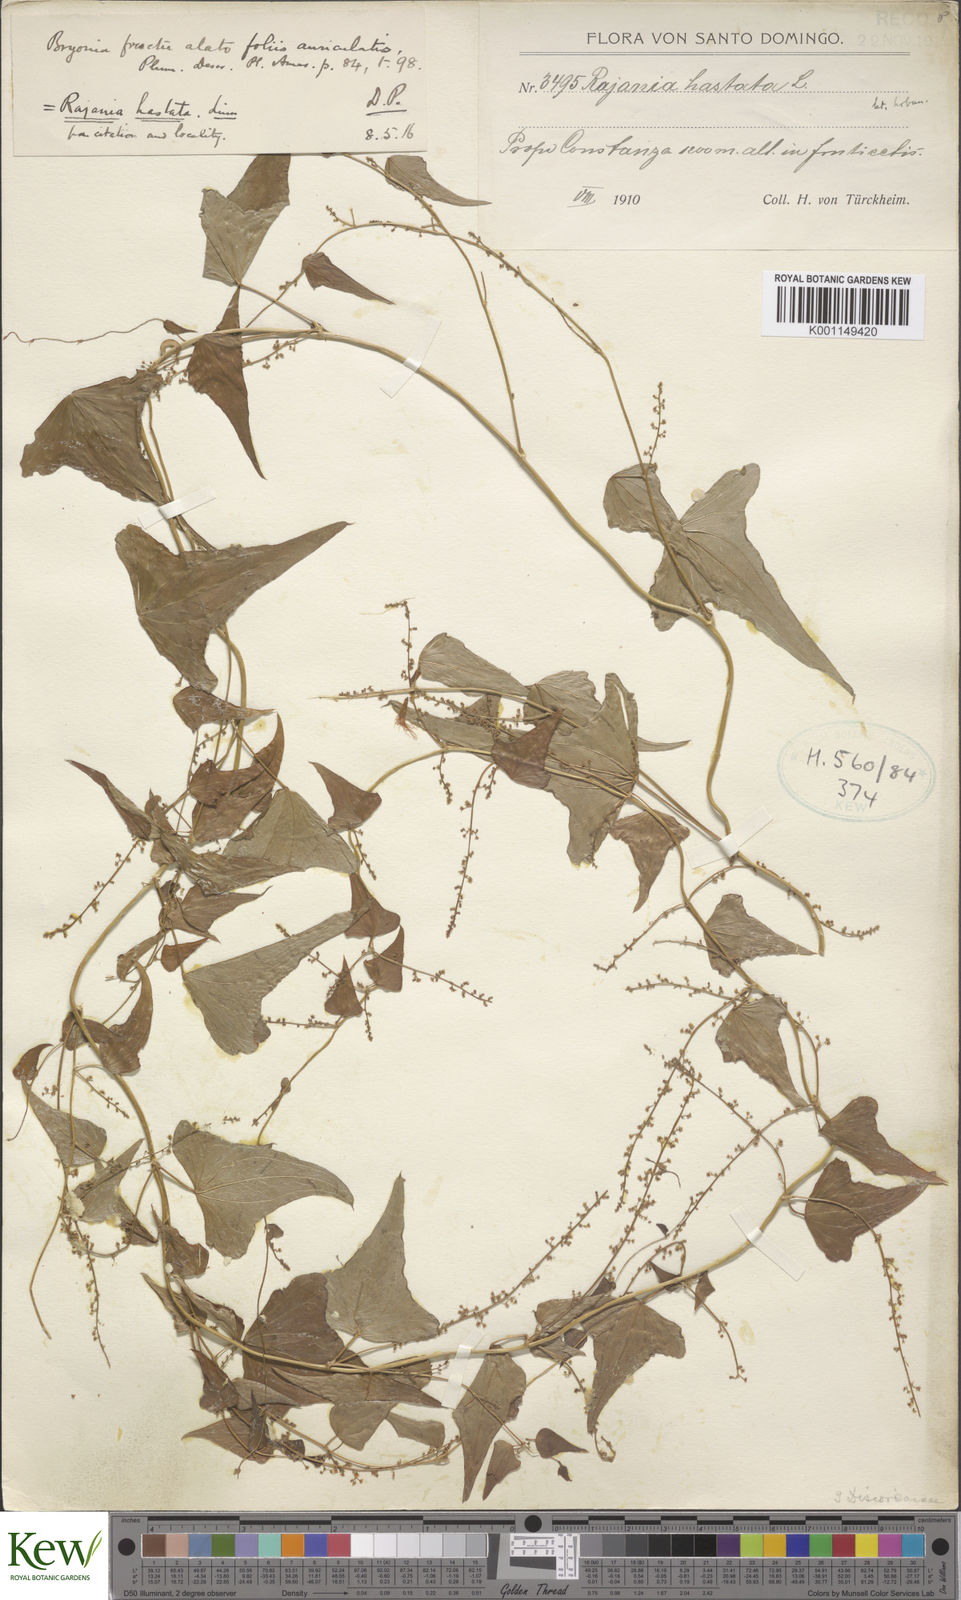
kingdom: Plantae
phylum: Tracheophyta
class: Liliopsida
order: Dioscoreales
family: Dioscoreaceae
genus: Dioscorea
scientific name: Dioscorea hastata
